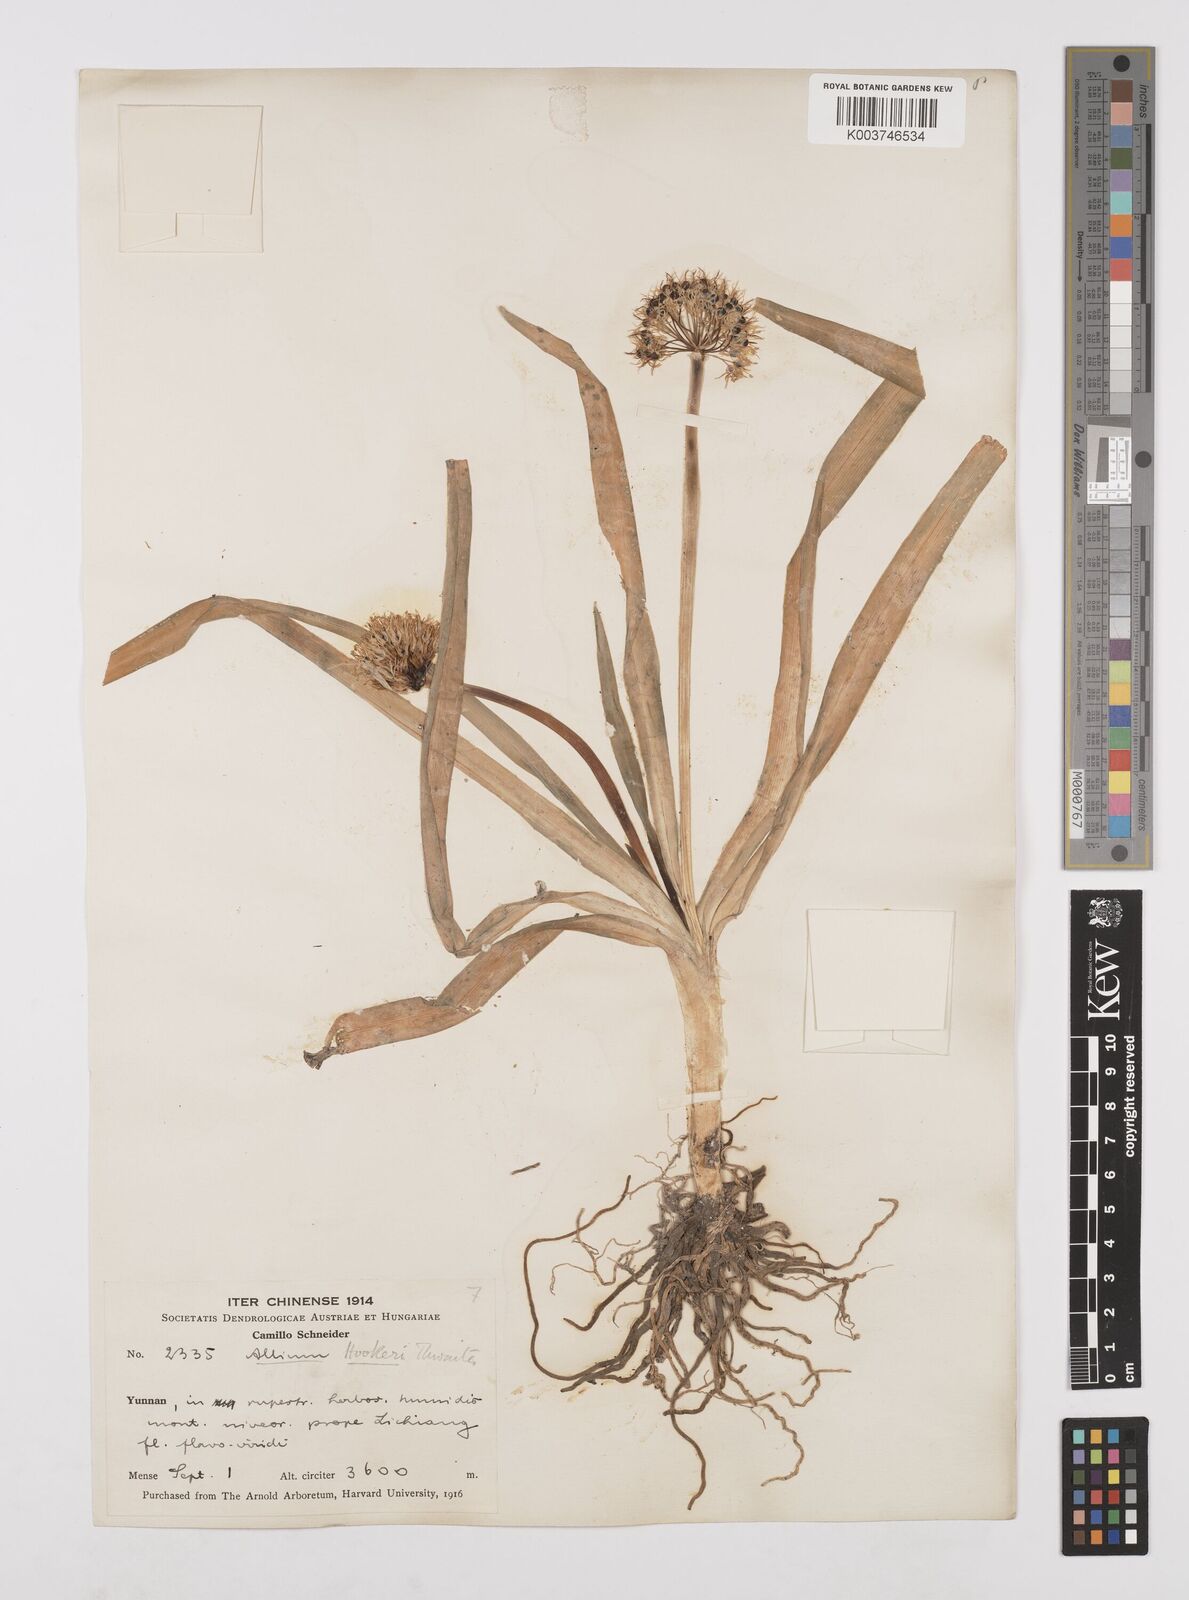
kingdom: Plantae
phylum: Tracheophyta
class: Liliopsida
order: Asparagales
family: Amaryllidaceae
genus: Allium
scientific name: Allium hookeri
